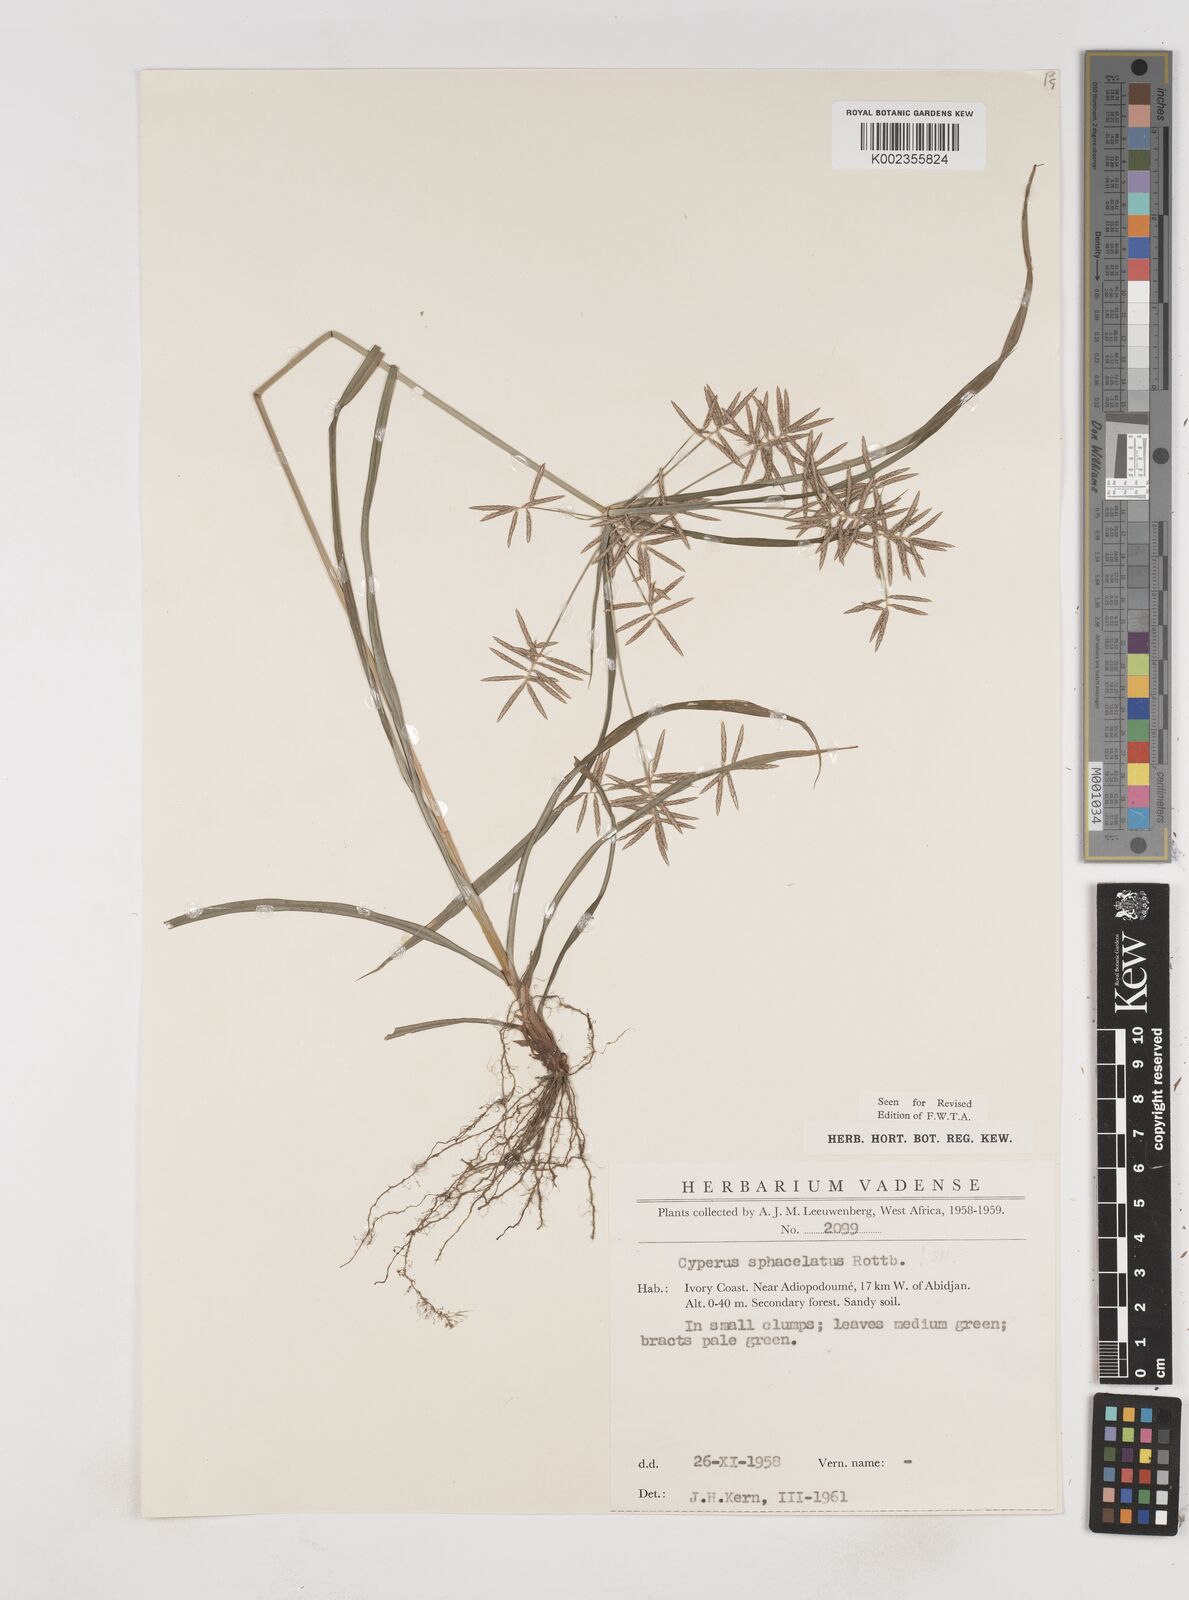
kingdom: Plantae
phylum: Tracheophyta
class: Liliopsida
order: Poales
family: Cyperaceae
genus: Cyperus
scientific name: Cyperus sphacelatus
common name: Roadside flatsedge
